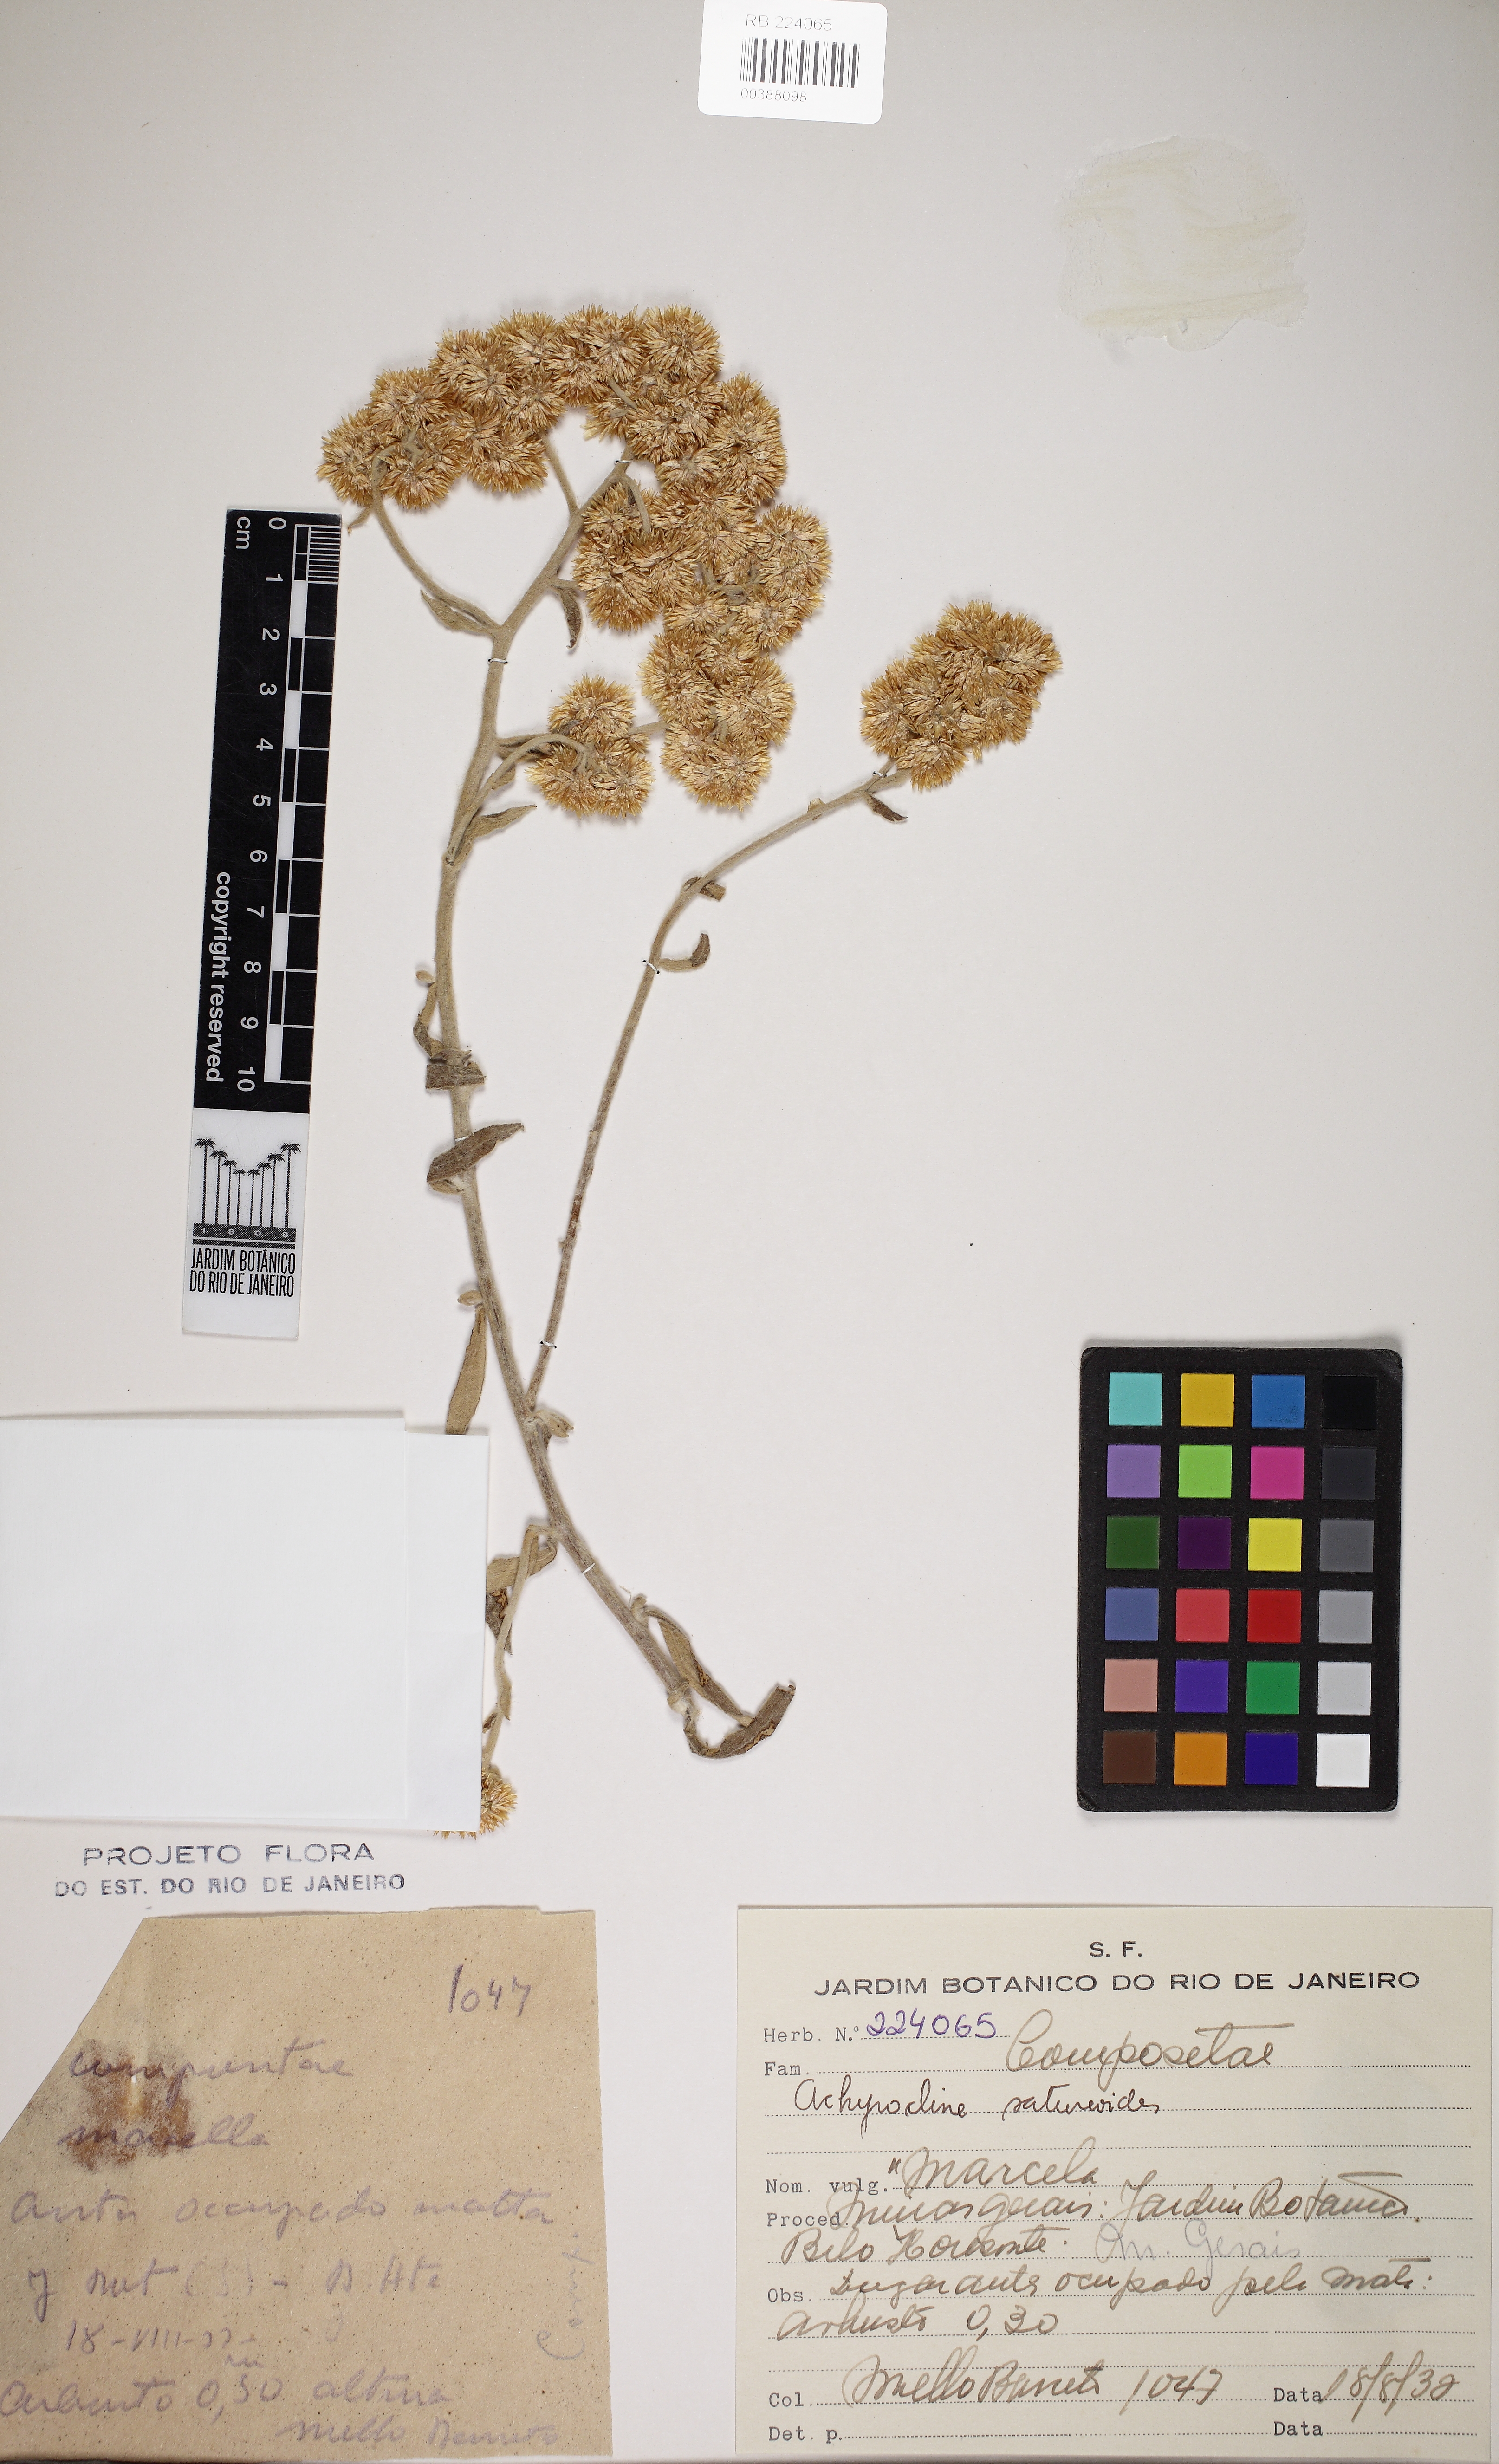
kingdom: Plantae
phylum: Tracheophyta
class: Magnoliopsida
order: Asterales
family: Asteraceae
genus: Achyrocline
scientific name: Achyrocline satureioides
